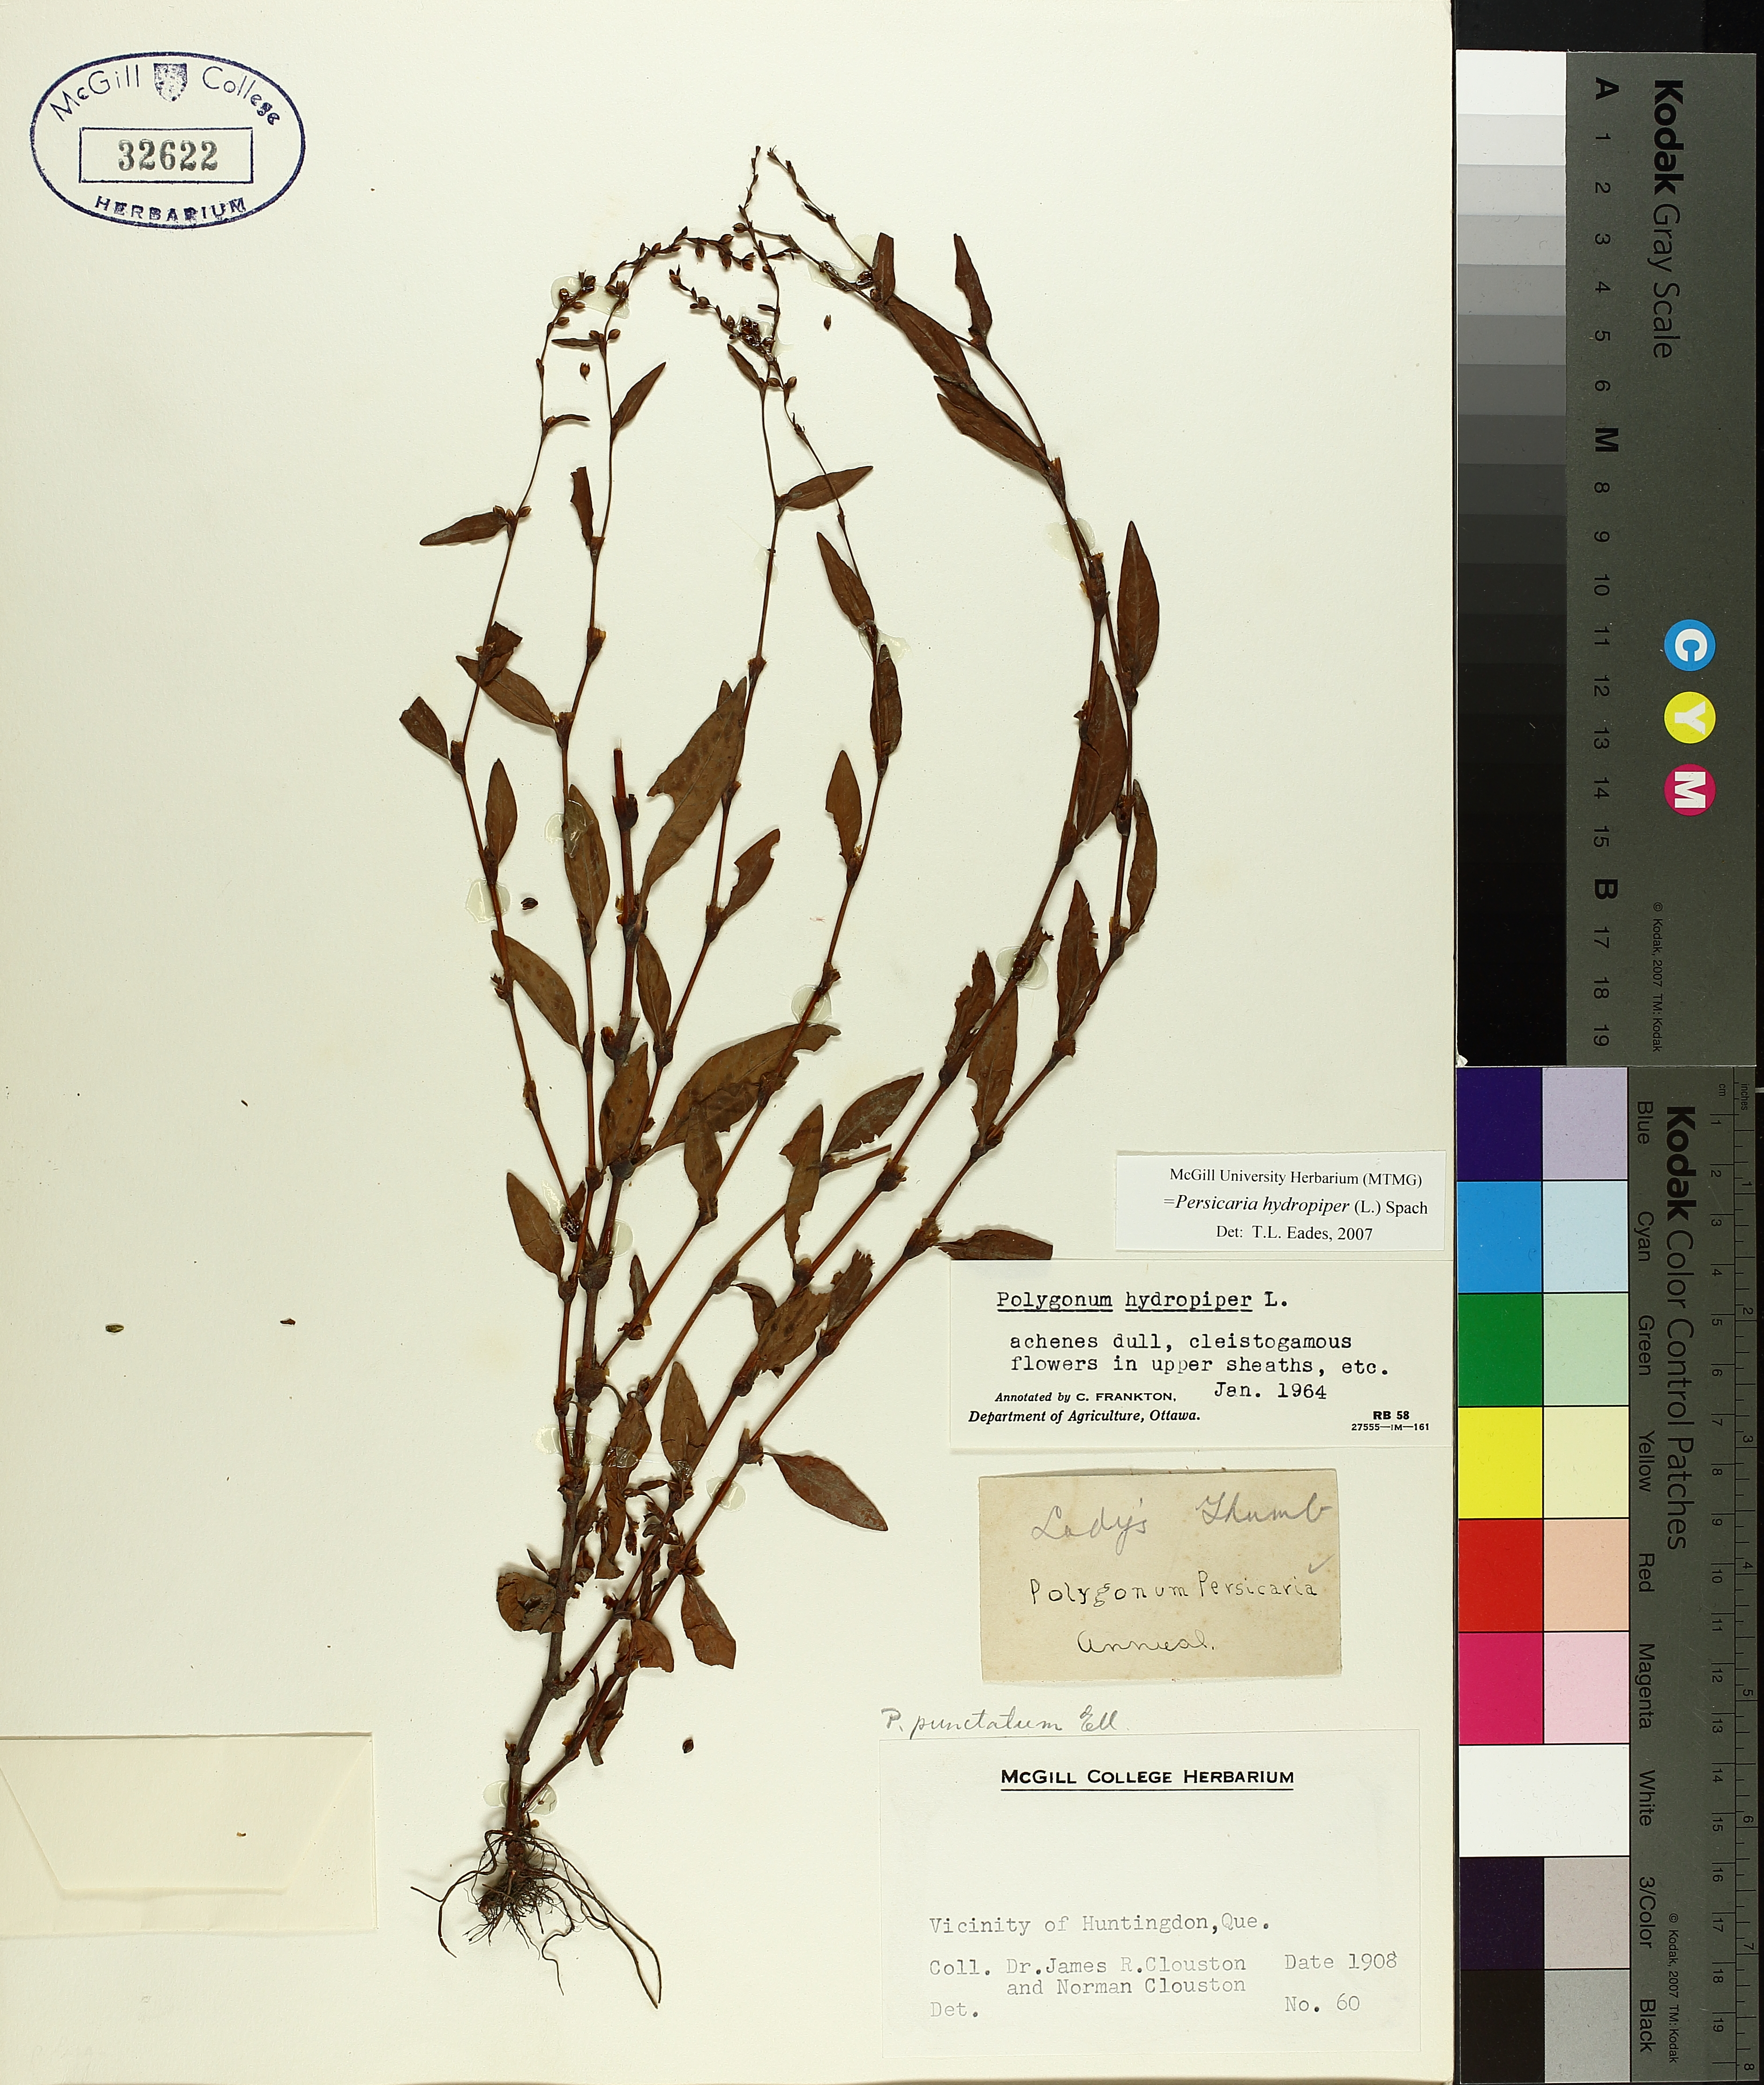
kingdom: Plantae
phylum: Tracheophyta
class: Magnoliopsida
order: Caryophyllales
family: Polygonaceae
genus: Persicaria
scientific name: Persicaria hydropiper
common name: Water-pepper
